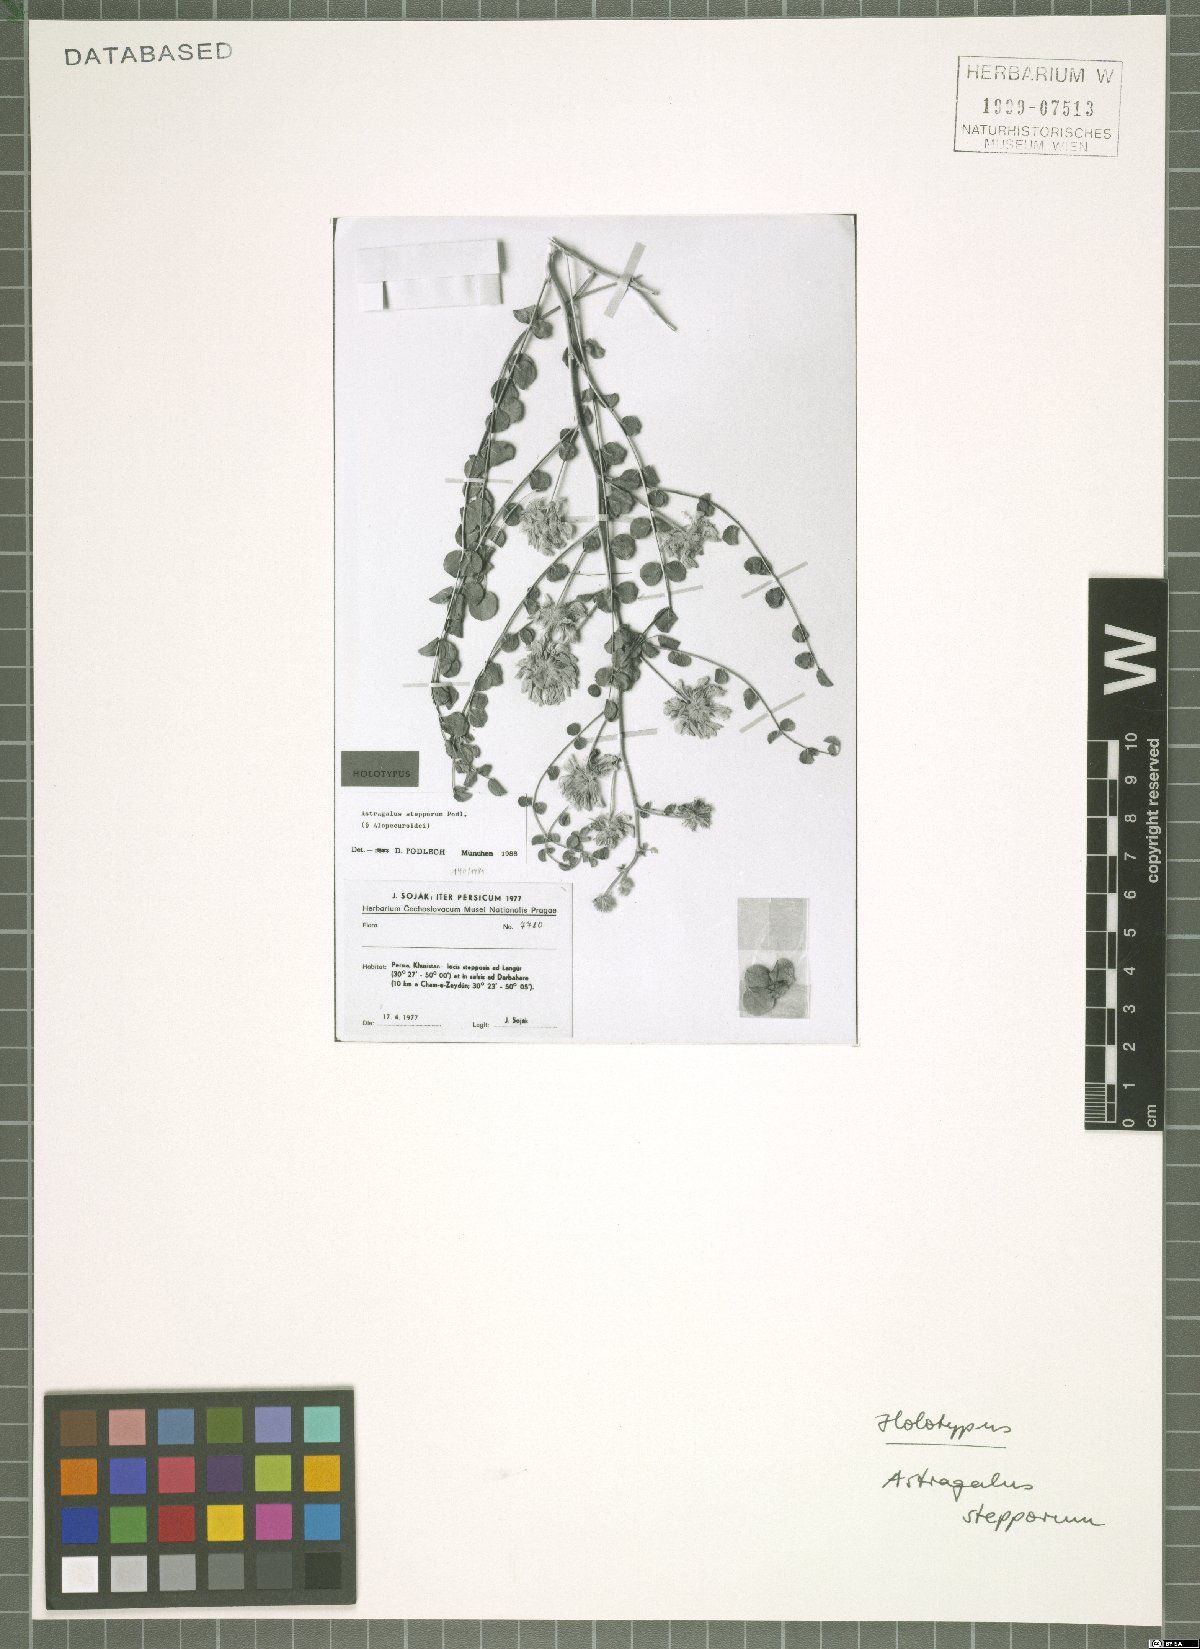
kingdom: Plantae
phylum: Tracheophyta
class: Magnoliopsida
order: Fabales
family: Fabaceae
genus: Astragalus
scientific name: Astragalus stepporum
